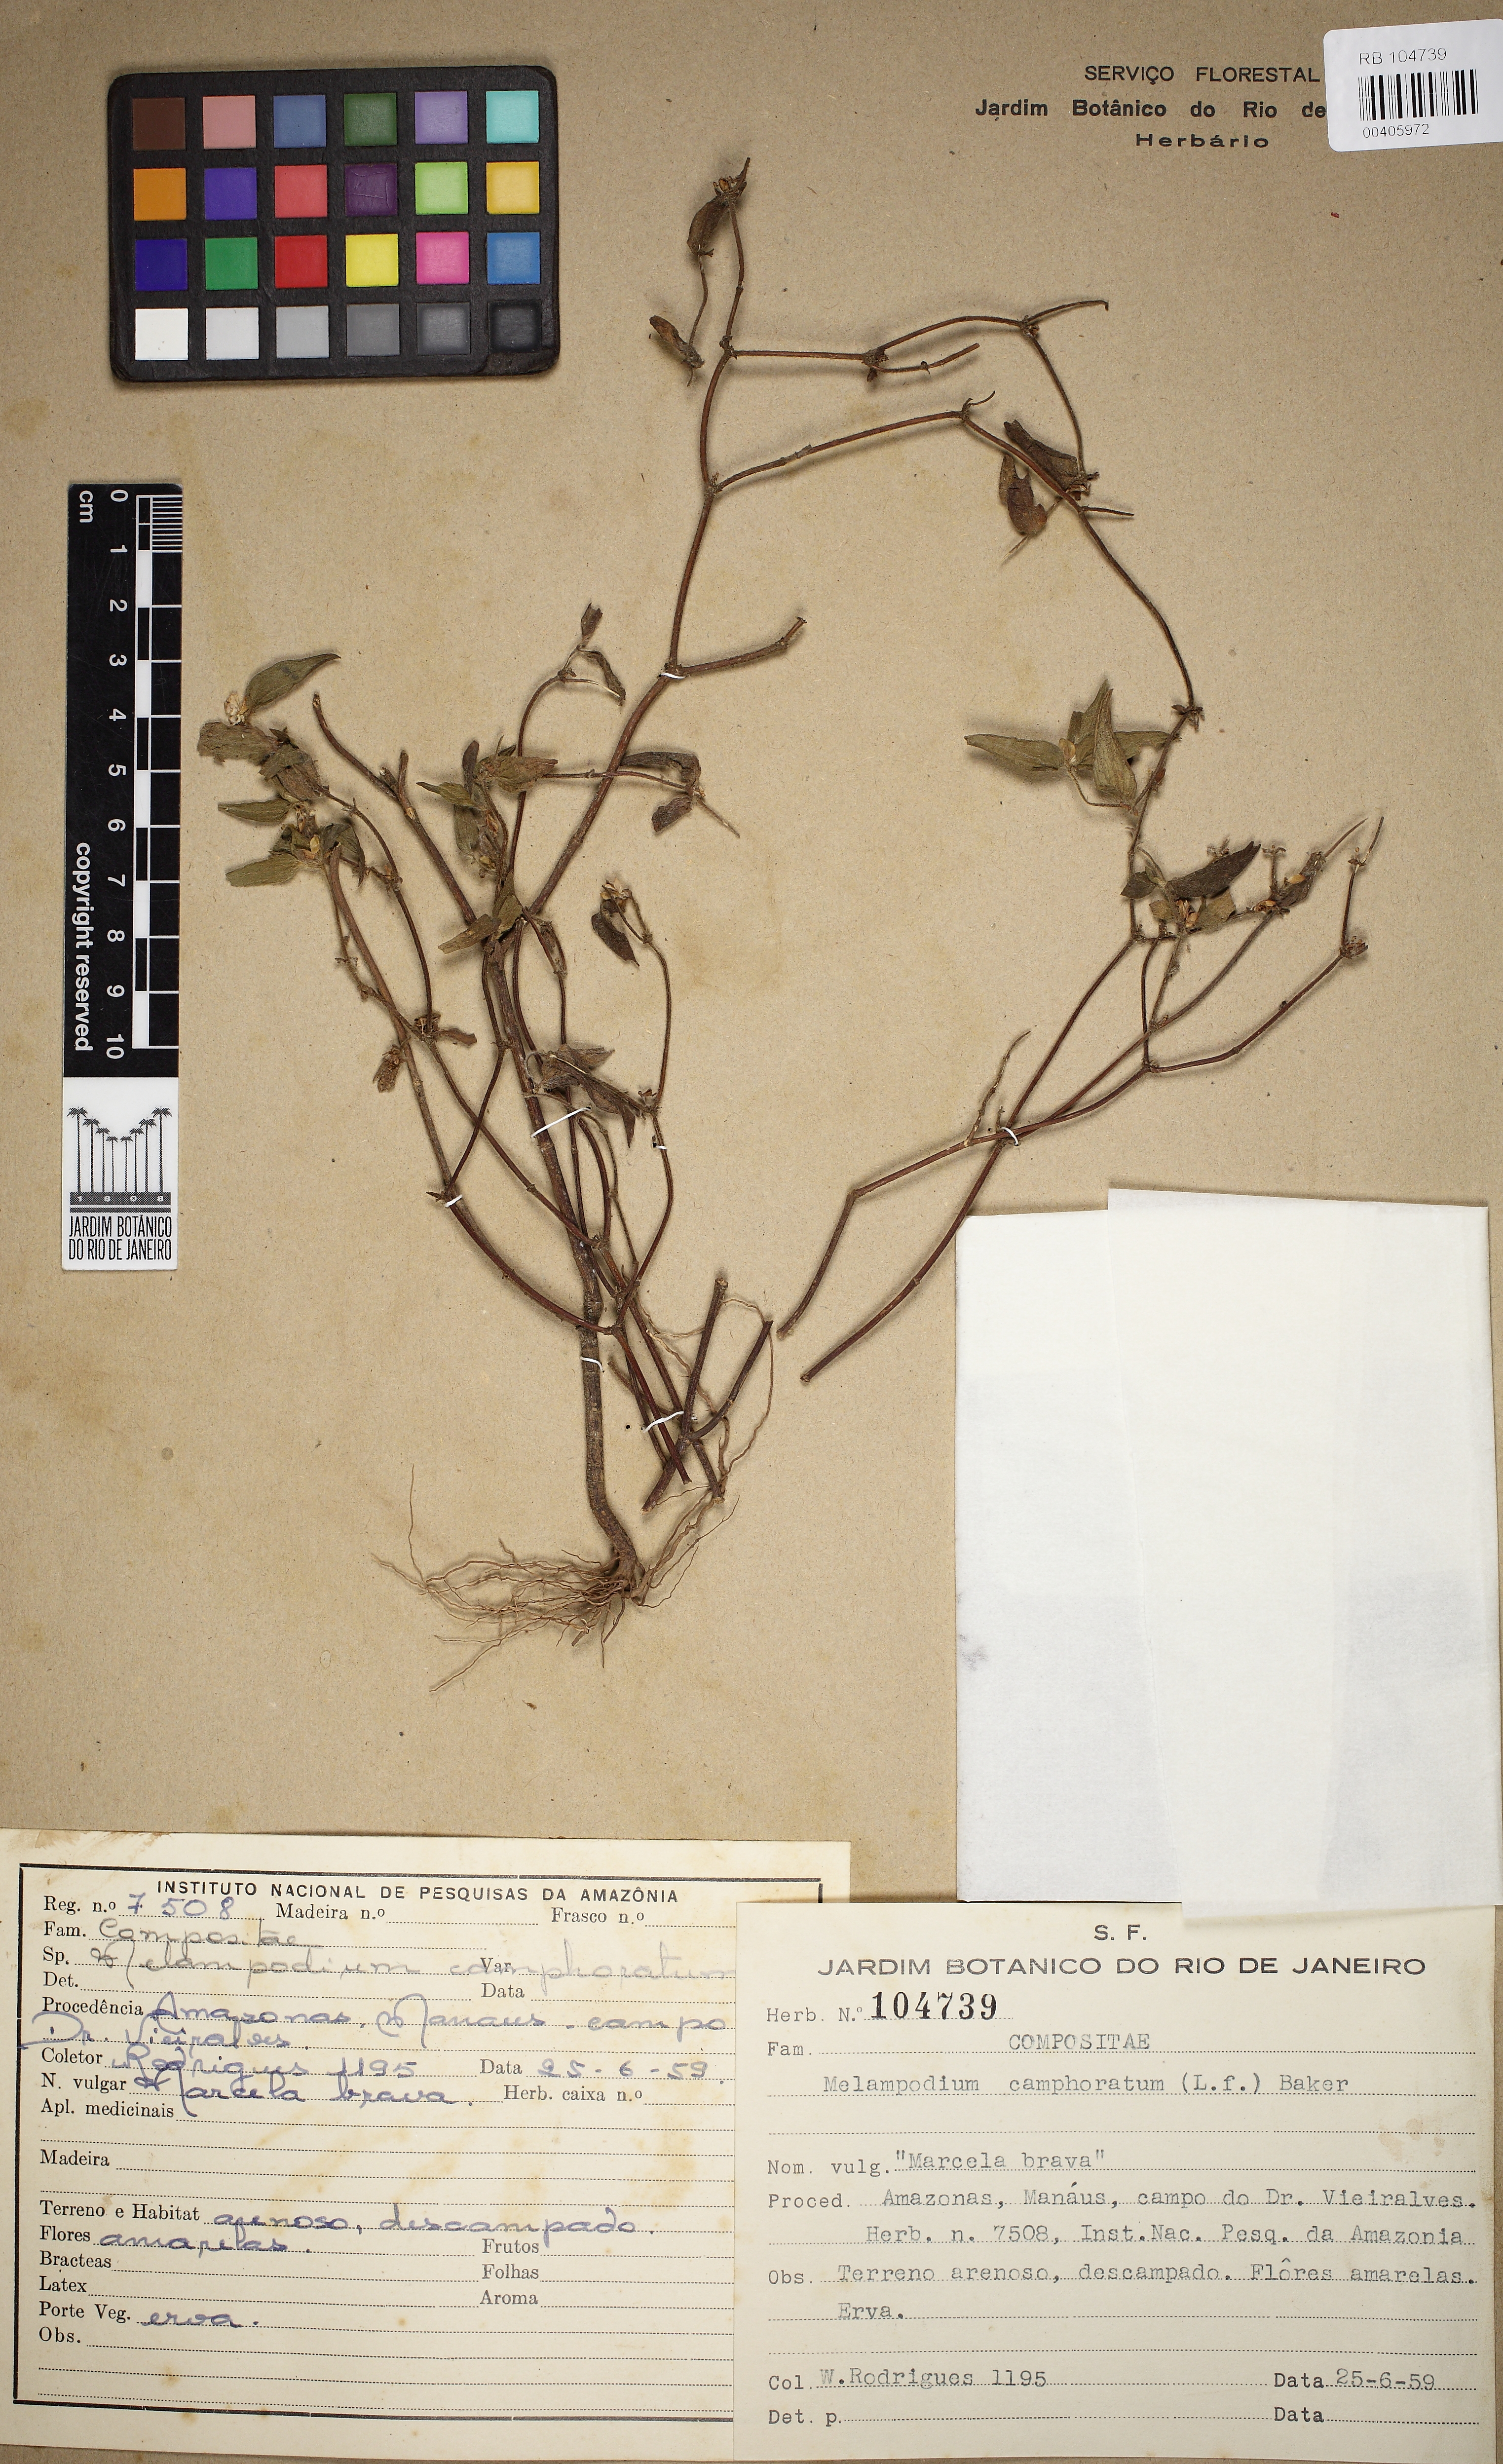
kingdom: Plantae
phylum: Tracheophyta
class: Magnoliopsida
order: Asterales
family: Asteraceae
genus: Melampodium
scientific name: Melampodium camphoratum
